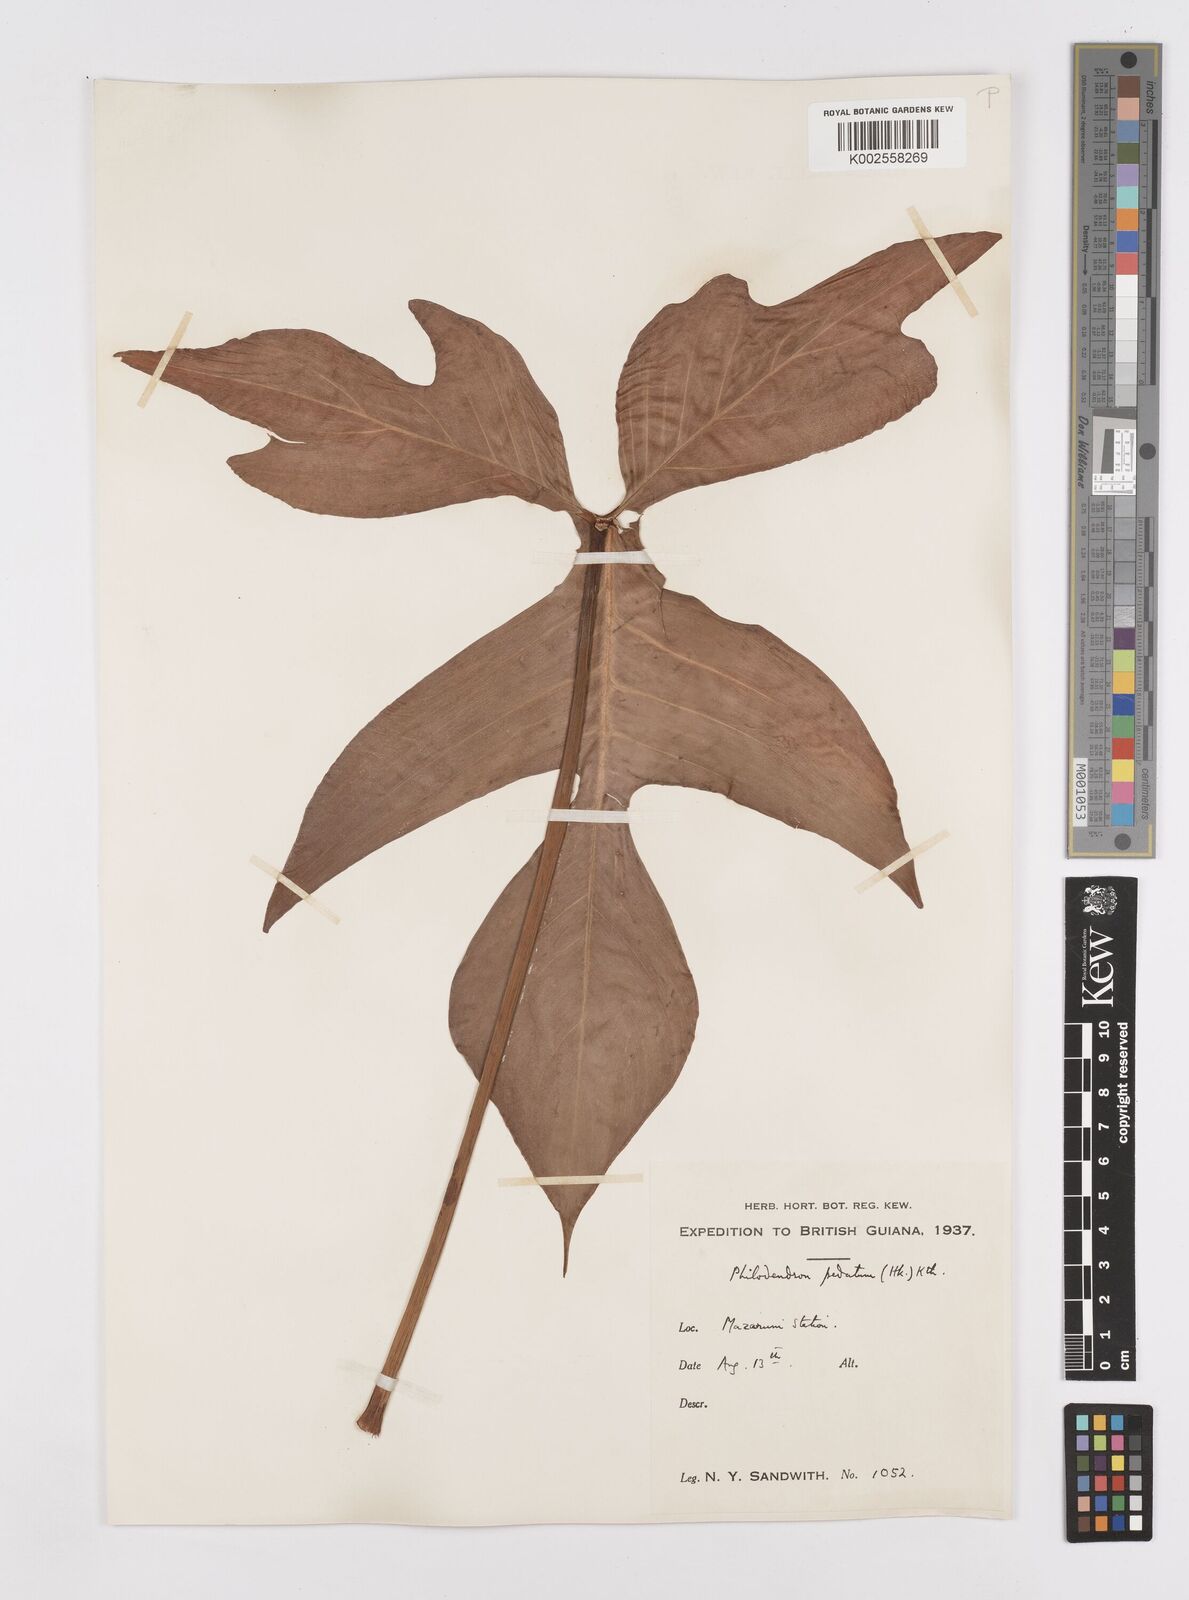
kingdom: Plantae
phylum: Tracheophyta
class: Liliopsida
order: Alismatales
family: Araceae
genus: Philodendron
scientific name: Philodendron pedatum
